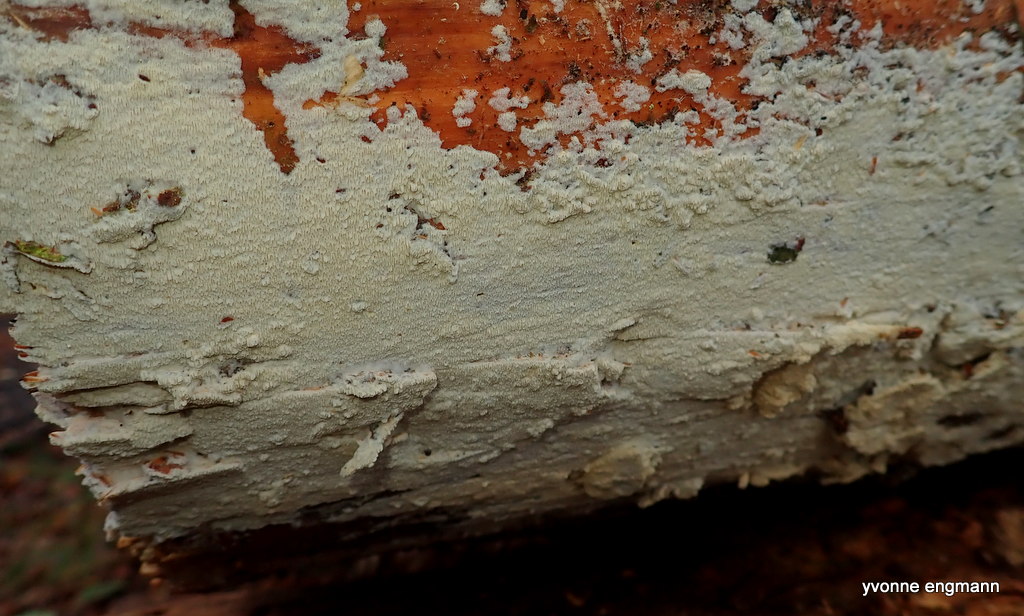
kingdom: Fungi
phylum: Basidiomycota
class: Agaricomycetes
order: Corticiales
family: Corticiaceae
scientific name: Corticiaceae
